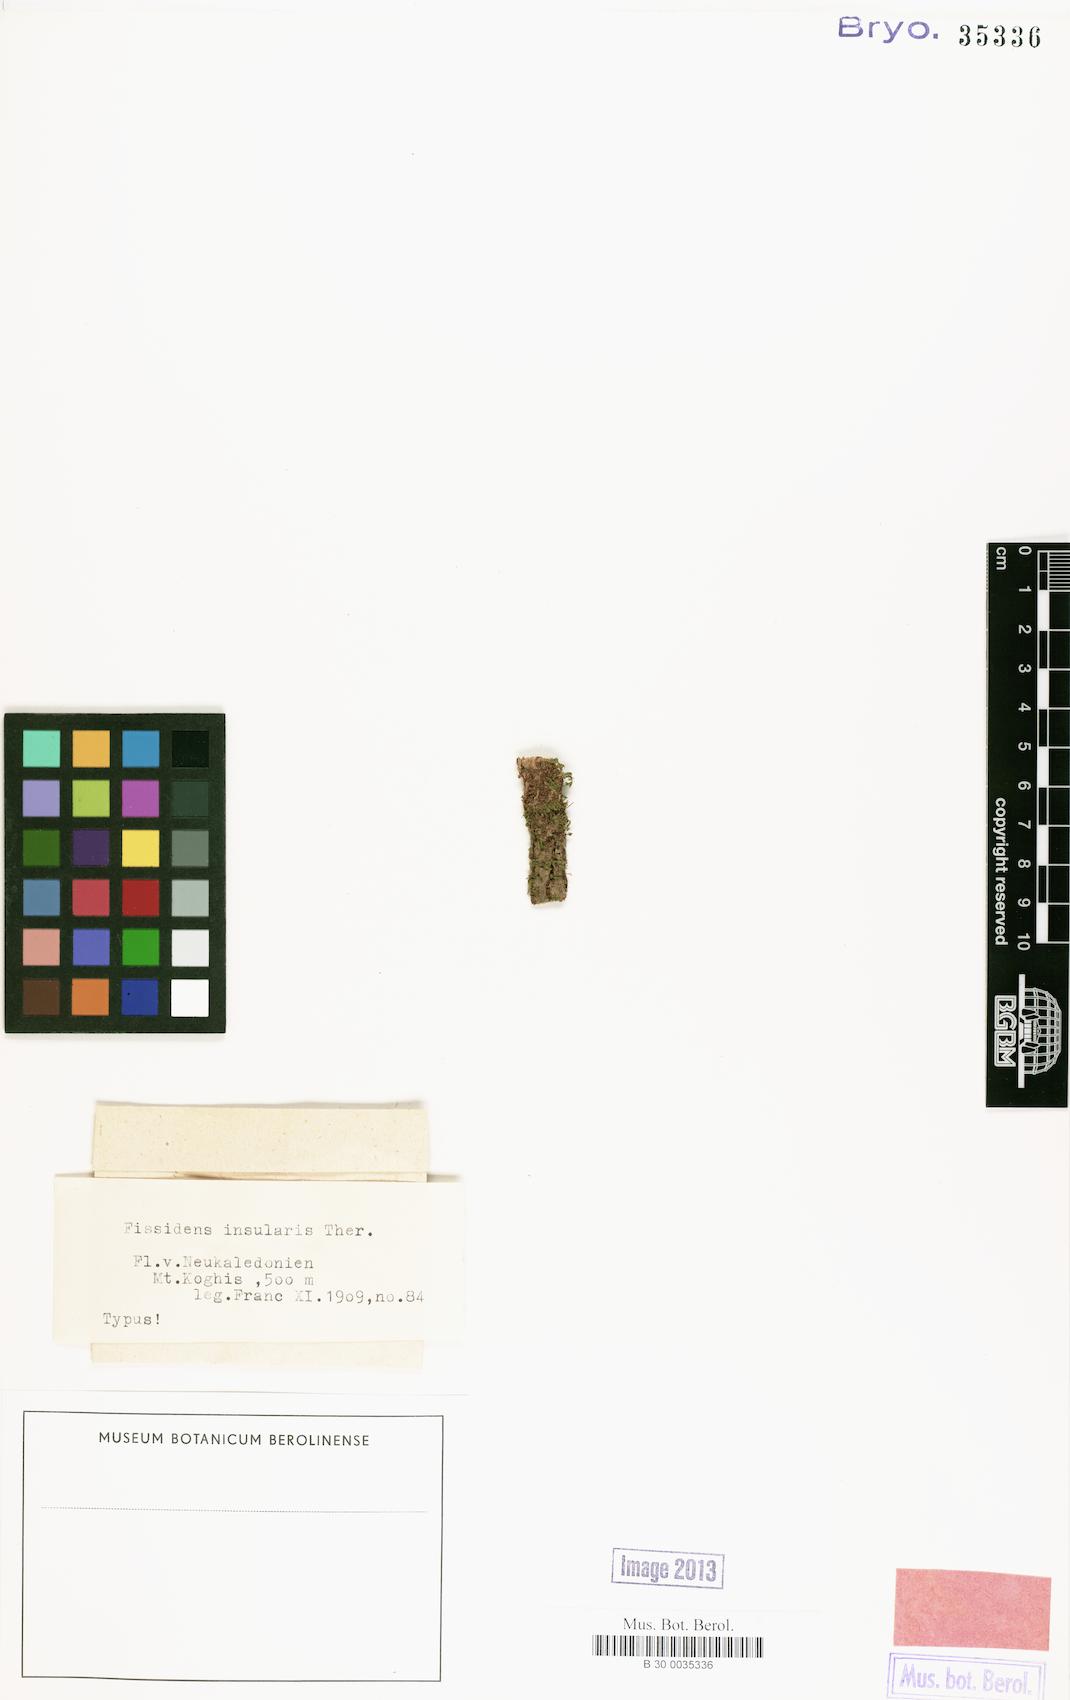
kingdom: Plantae
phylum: Bryophyta
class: Bryopsida
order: Dicranales
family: Fissidentaceae
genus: Fissidens
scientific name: Fissidens lautokensis
